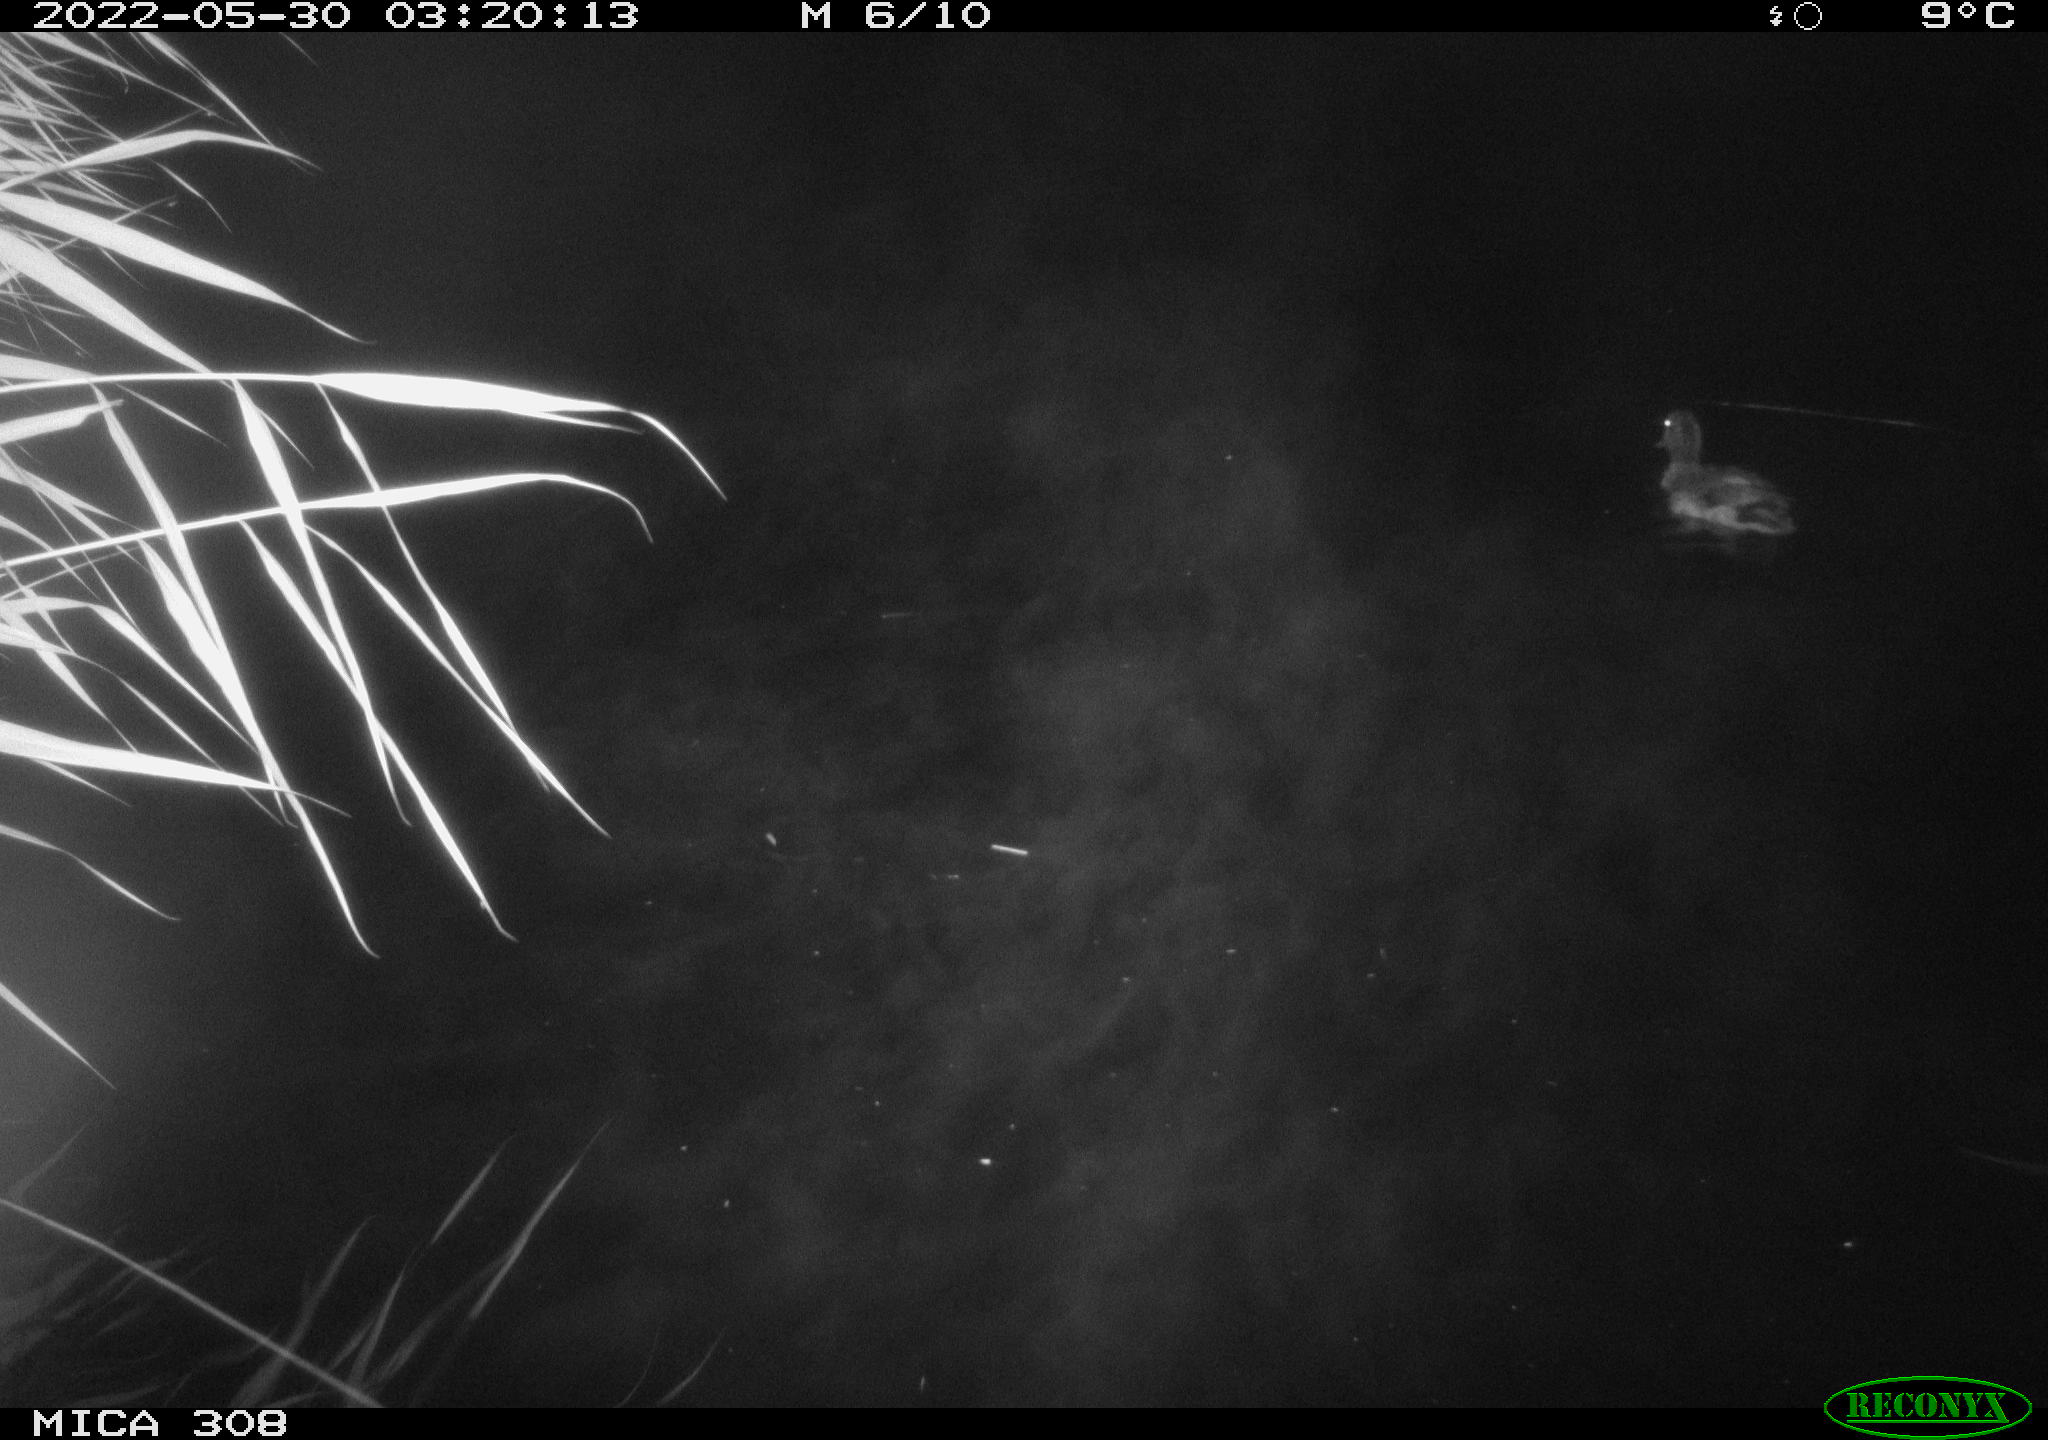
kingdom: Animalia
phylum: Chordata
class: Aves
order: Anseriformes
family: Anatidae
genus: Anas
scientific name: Anas platyrhynchos
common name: Mallard
